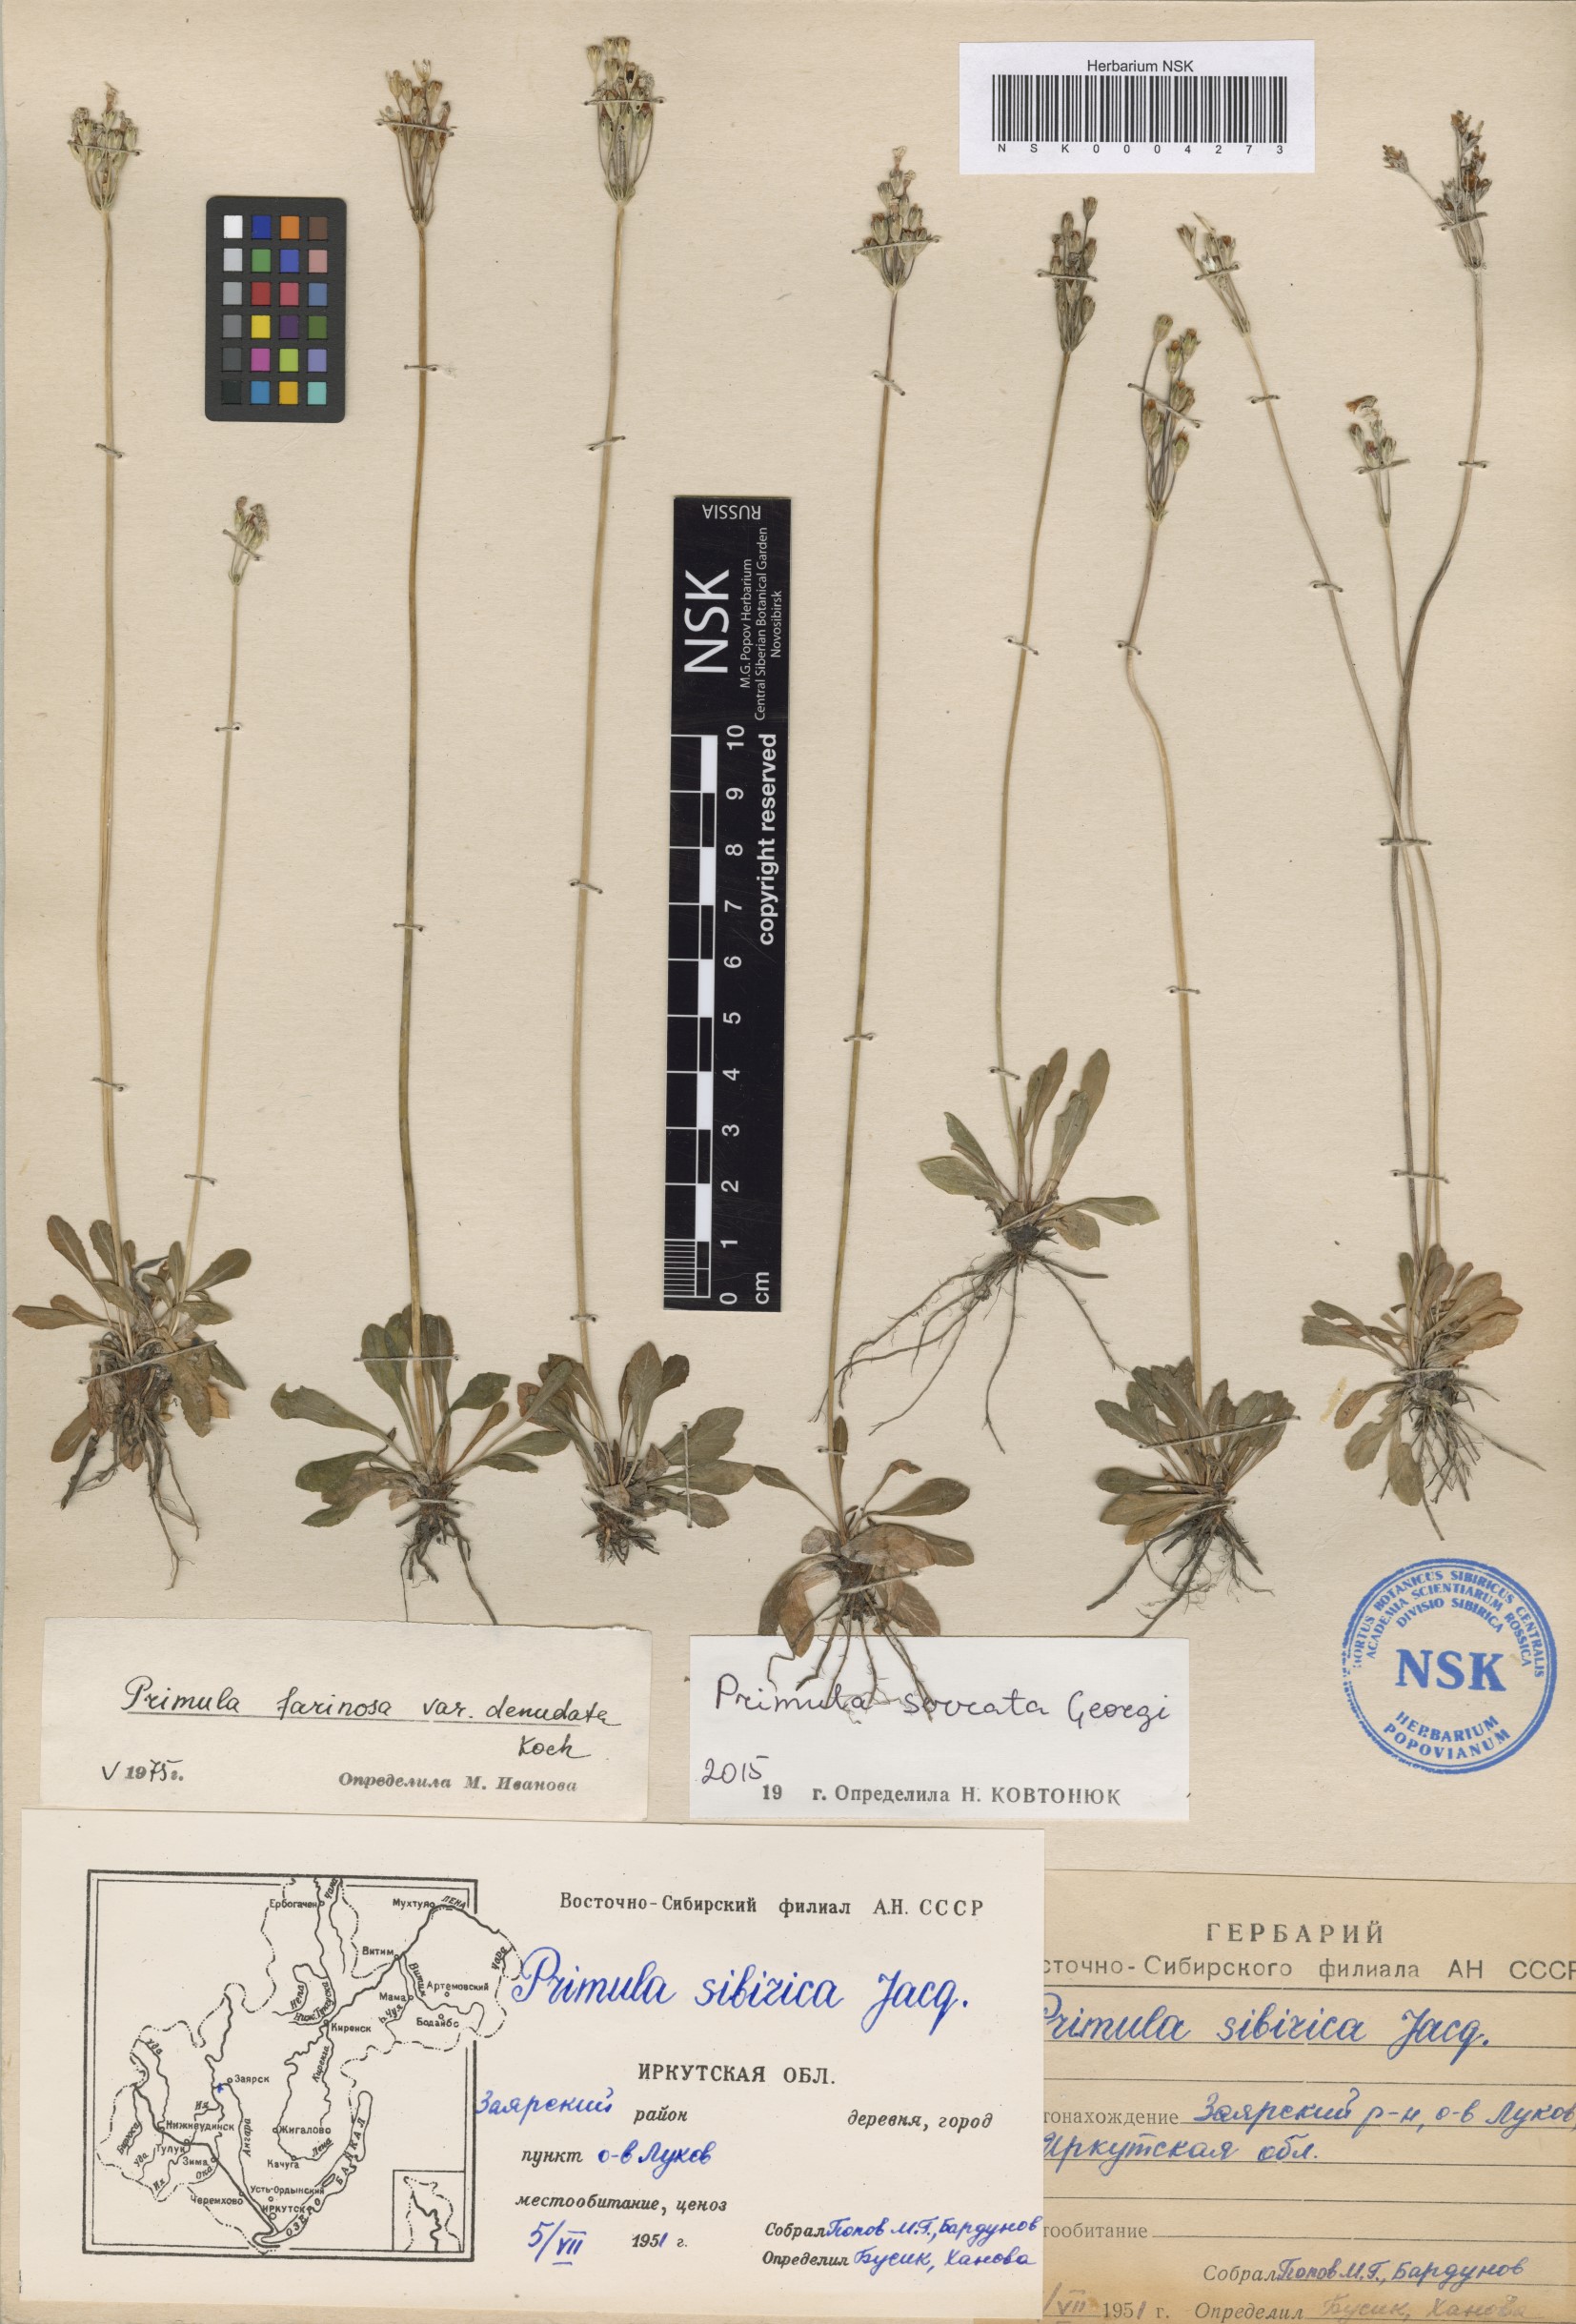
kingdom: Plantae
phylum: Tracheophyta
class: Magnoliopsida
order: Ericales
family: Primulaceae
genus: Primula
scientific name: Primula serrata
